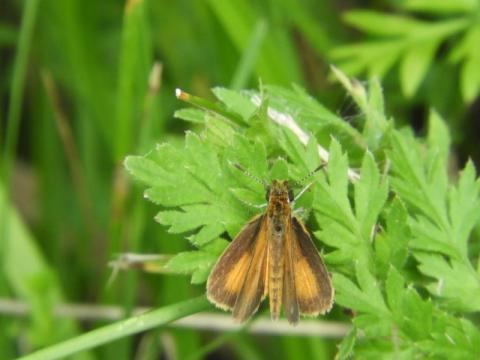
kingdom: Animalia
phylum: Arthropoda
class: Insecta
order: Lepidoptera
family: Hesperiidae
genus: Ancyloxypha
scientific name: Ancyloxypha numitor
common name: Least Skipper
